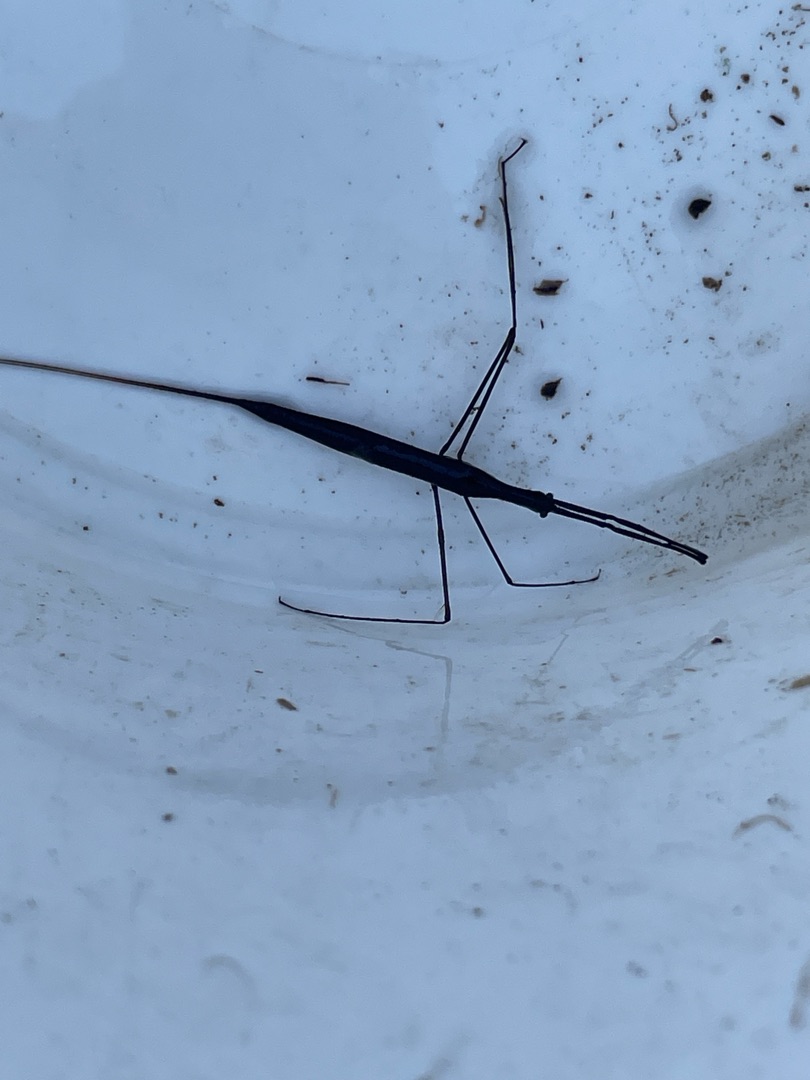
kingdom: Animalia
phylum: Arthropoda
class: Insecta
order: Hemiptera
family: Nepidae
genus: Ranatra
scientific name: Ranatra linearis
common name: Stavtæge
